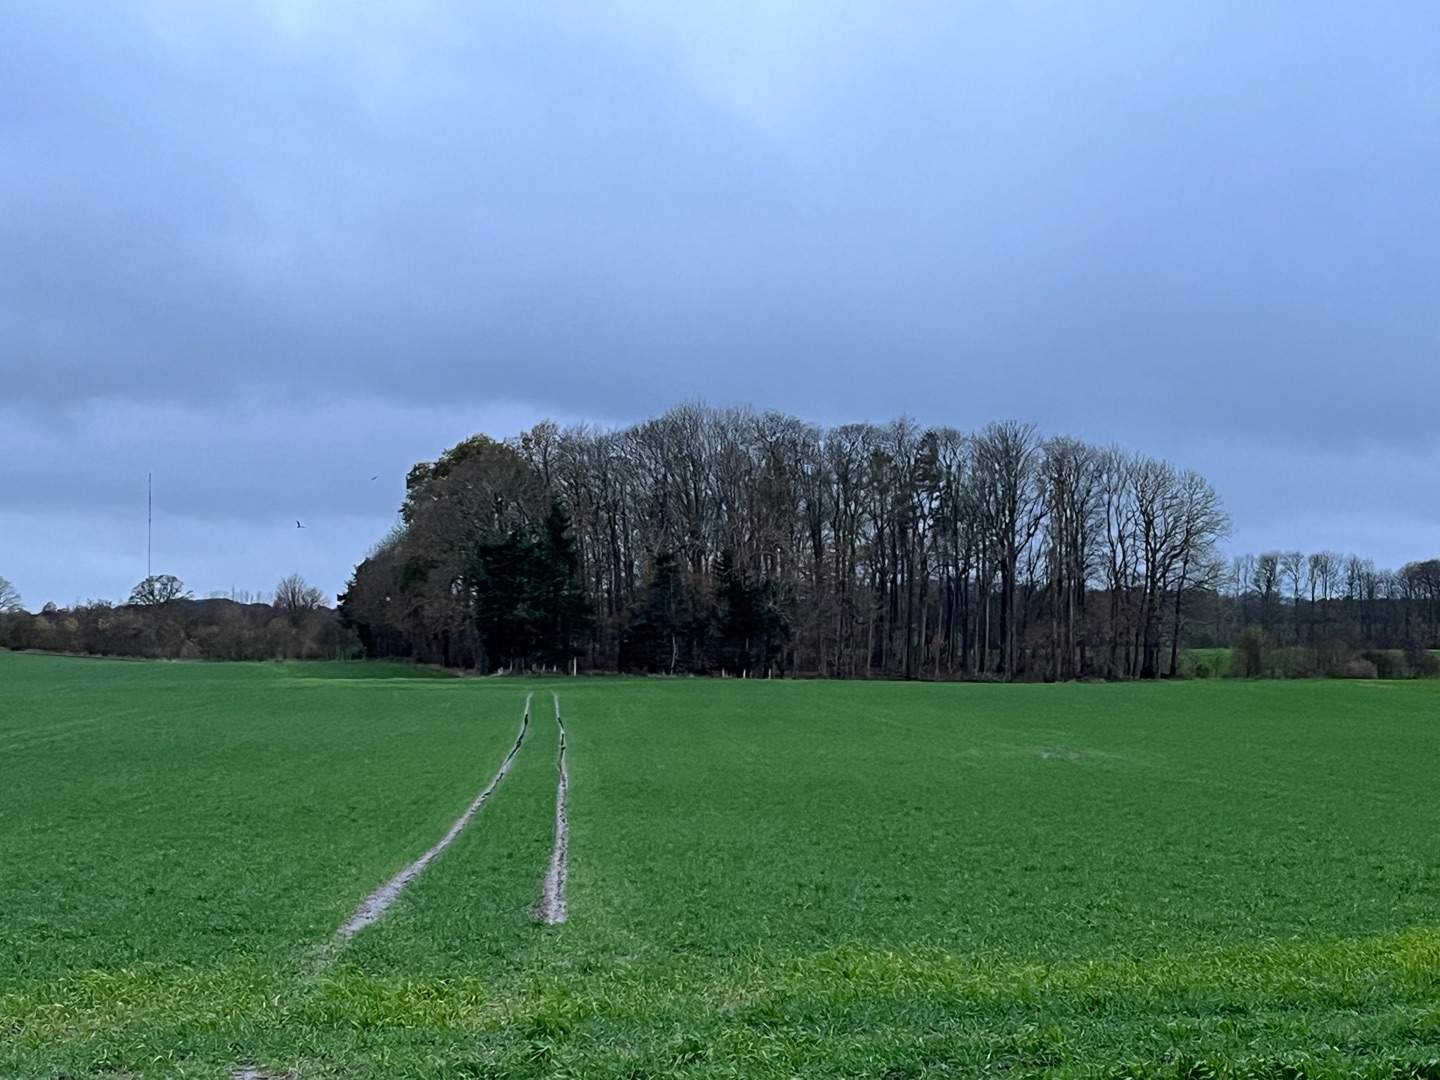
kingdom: Animalia
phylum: Chordata
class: Aves
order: Accipitriformes
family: Accipitridae
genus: Milvus
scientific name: Milvus milvus
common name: Rød glente
